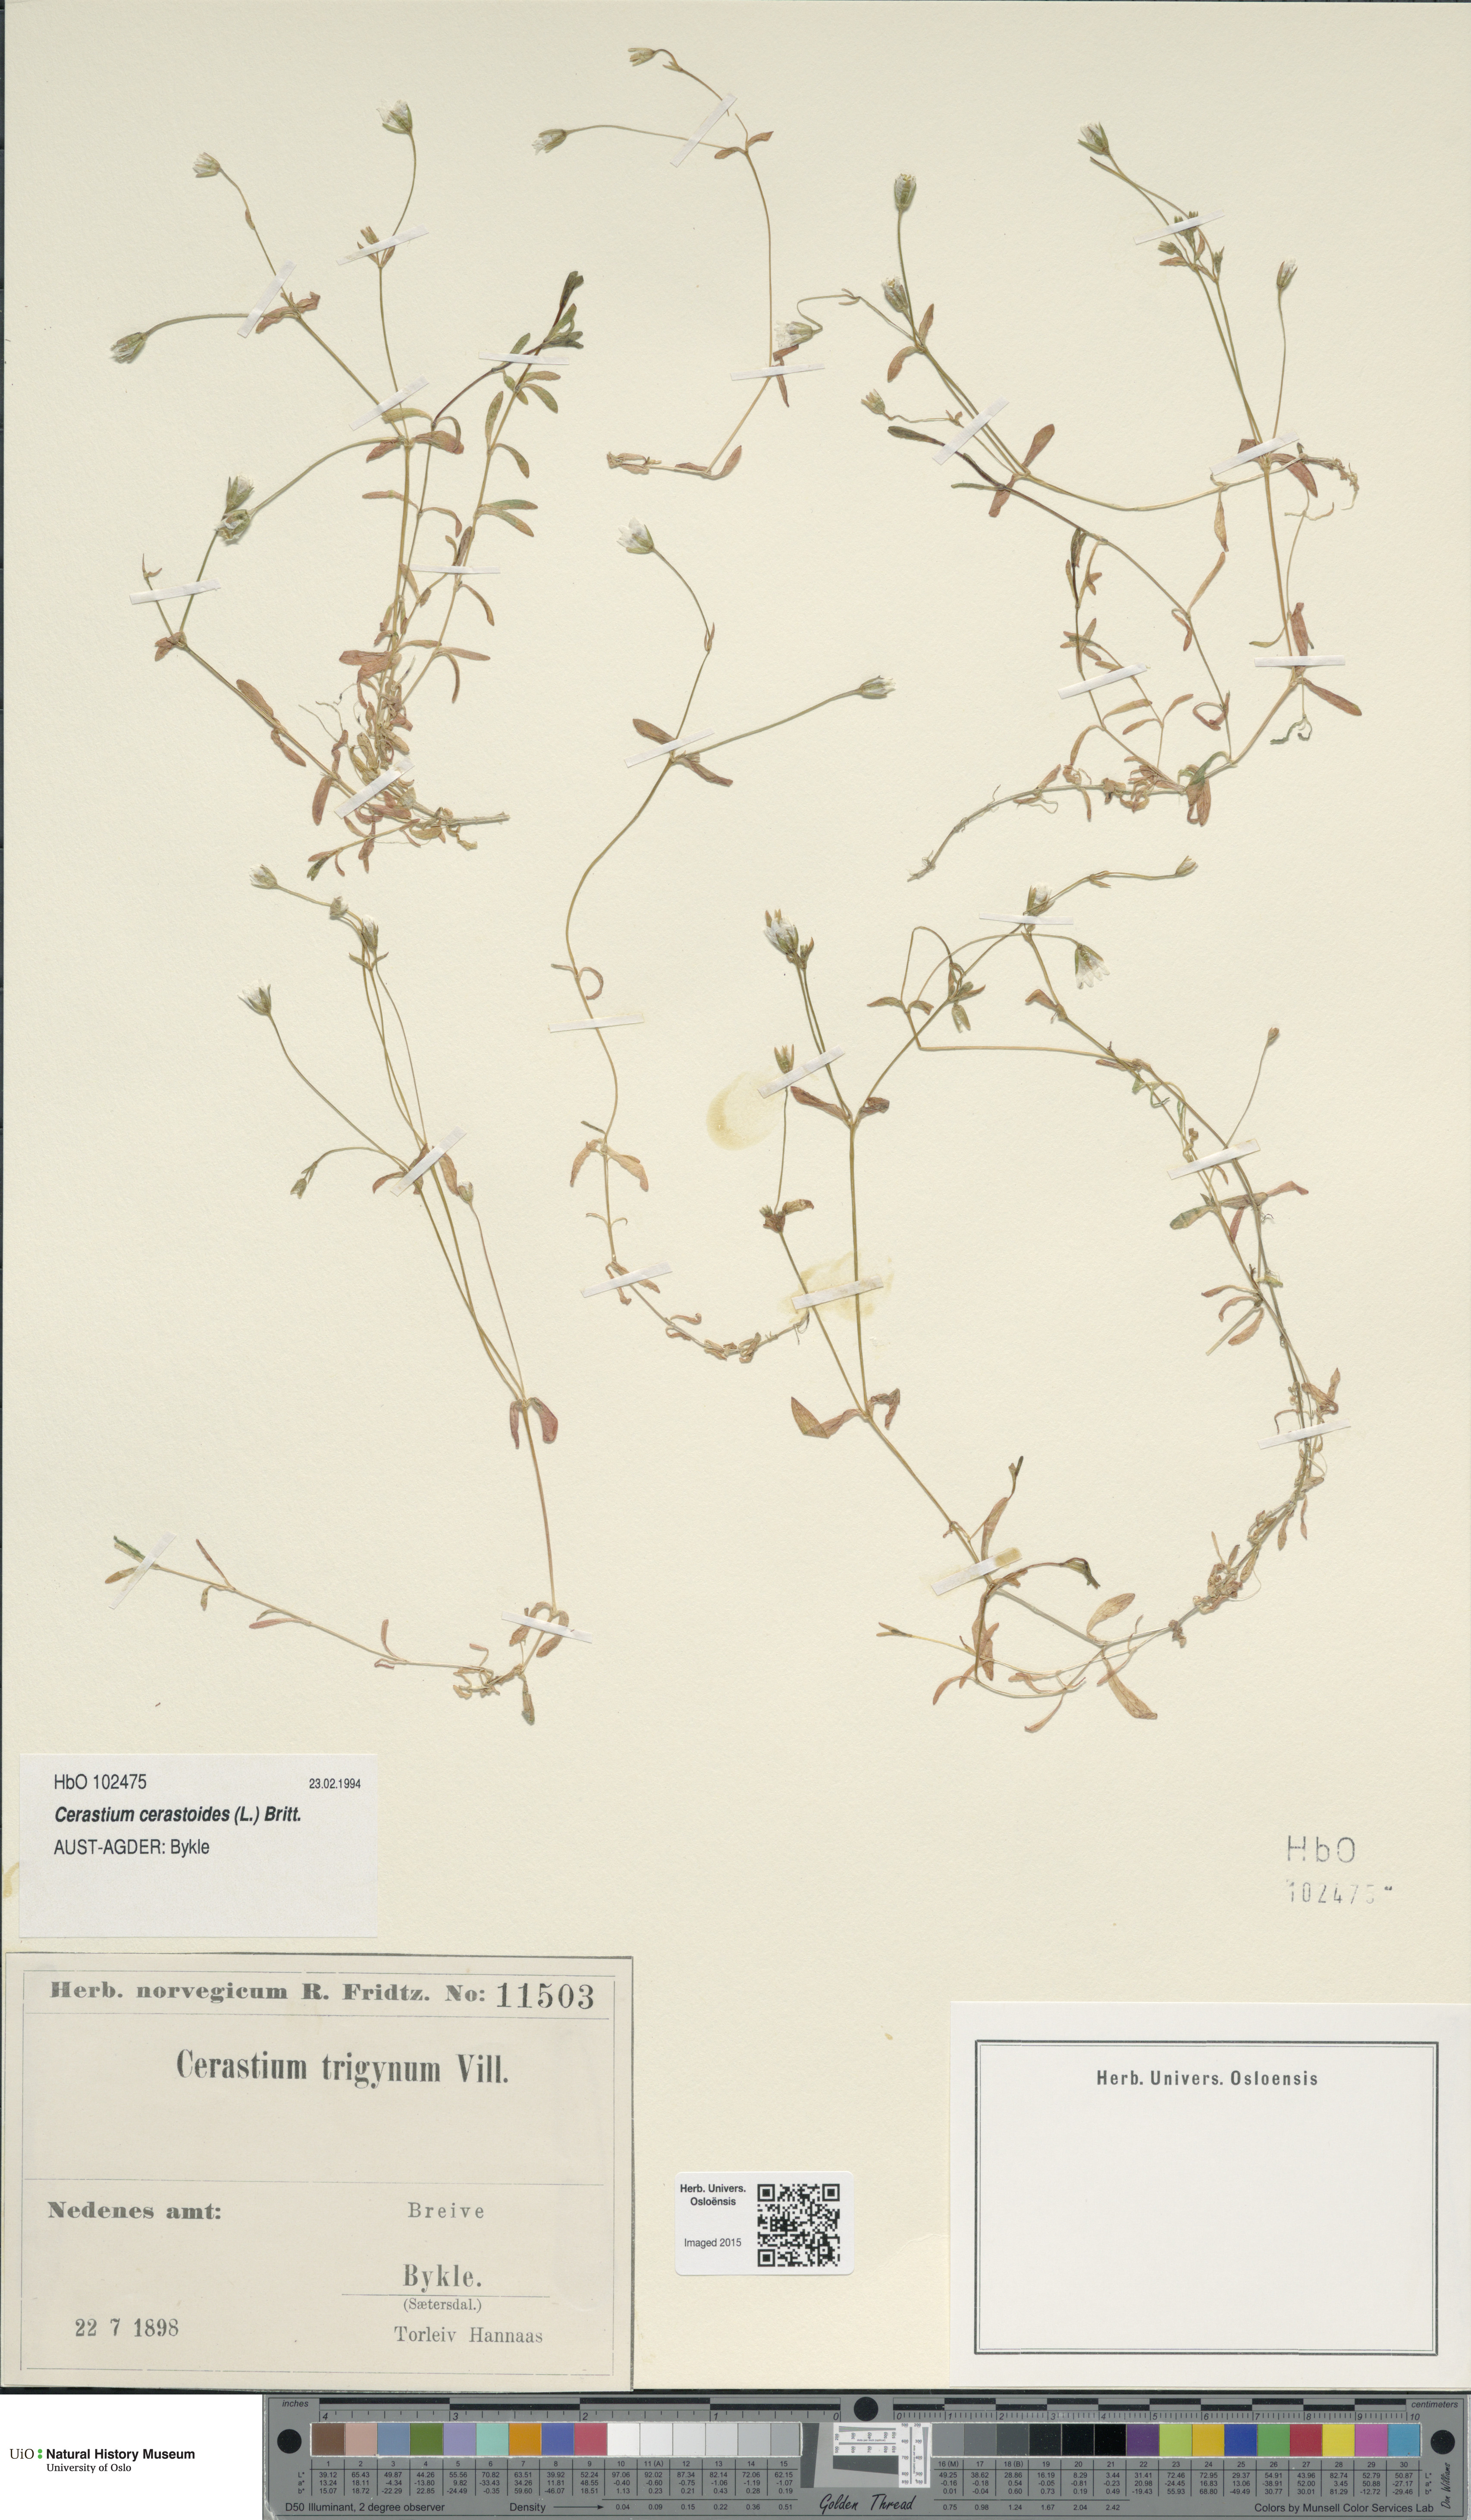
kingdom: Plantae
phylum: Tracheophyta
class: Magnoliopsida
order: Caryophyllales
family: Caryophyllaceae
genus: Dichodon
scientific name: Dichodon cerastoides
